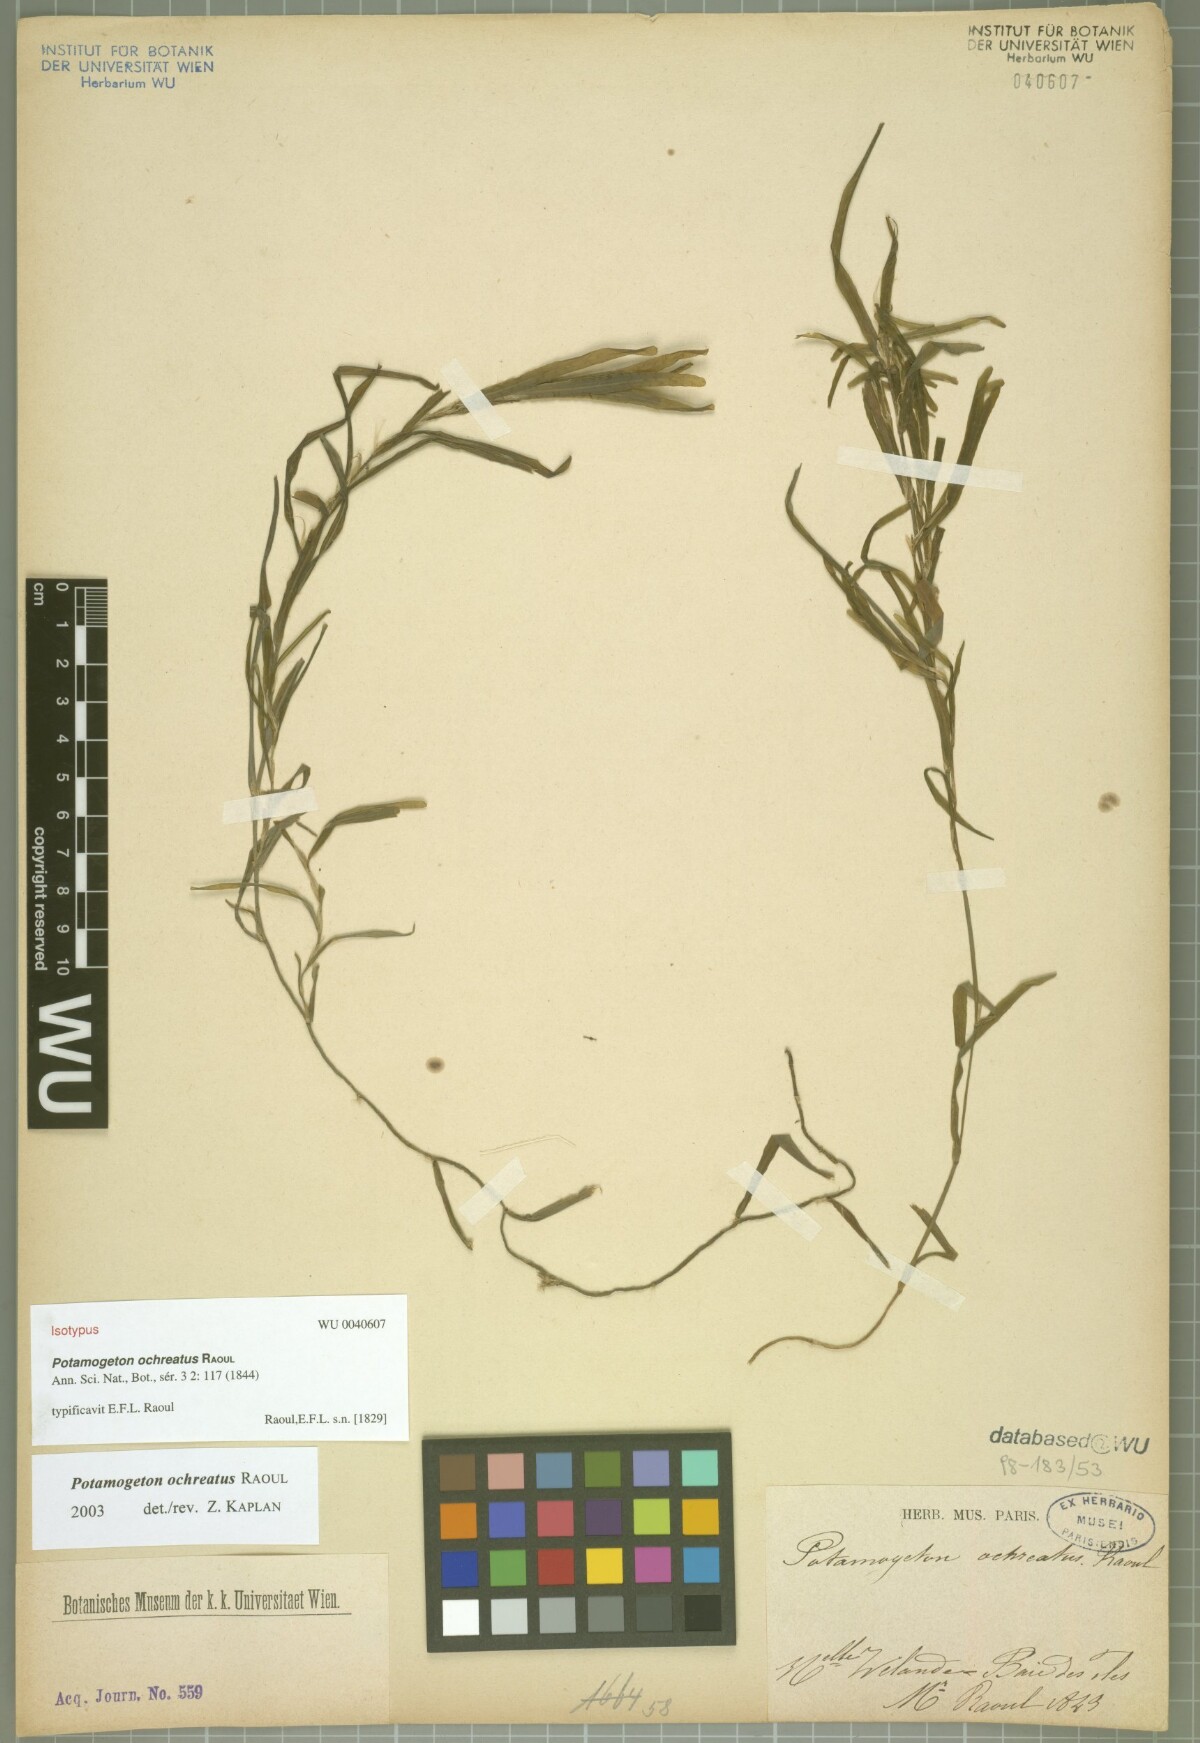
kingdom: Plantae
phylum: Tracheophyta
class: Liliopsida
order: Alismatales
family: Potamogetonaceae
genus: Potamogeton
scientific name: Potamogeton ochreatus
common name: Blunt pondweed
